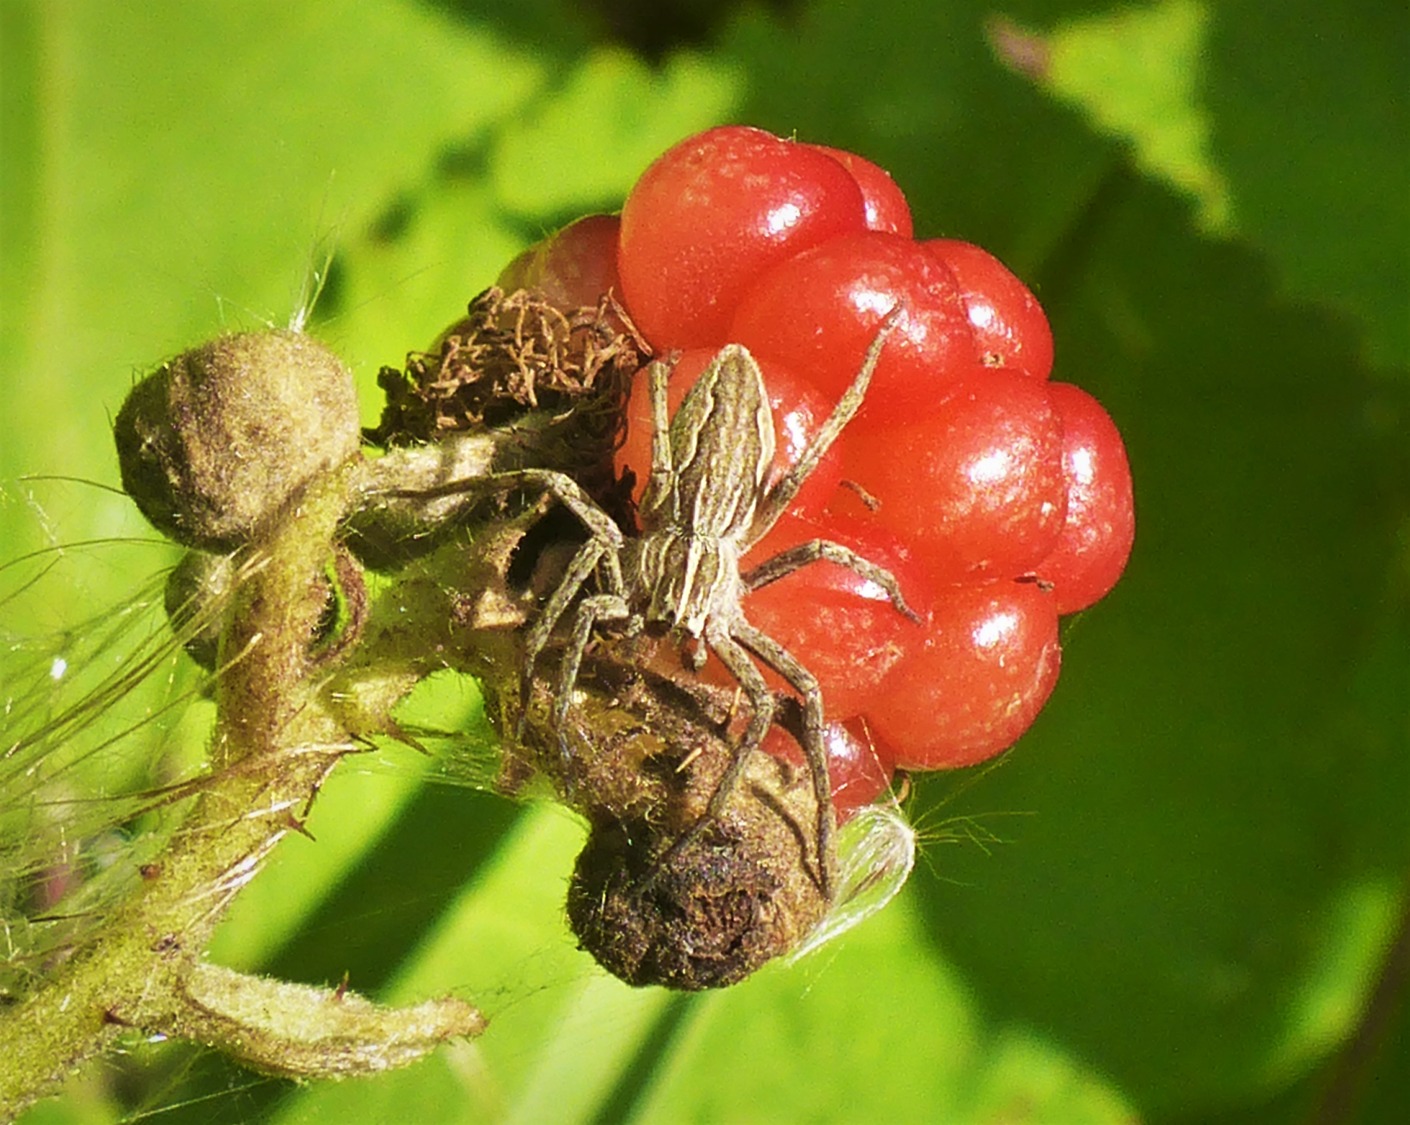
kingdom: Animalia
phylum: Arthropoda
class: Arachnida
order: Araneae
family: Pisauridae
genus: Pisaura
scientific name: Pisaura mirabilis
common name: Almindelig rovedderkop
